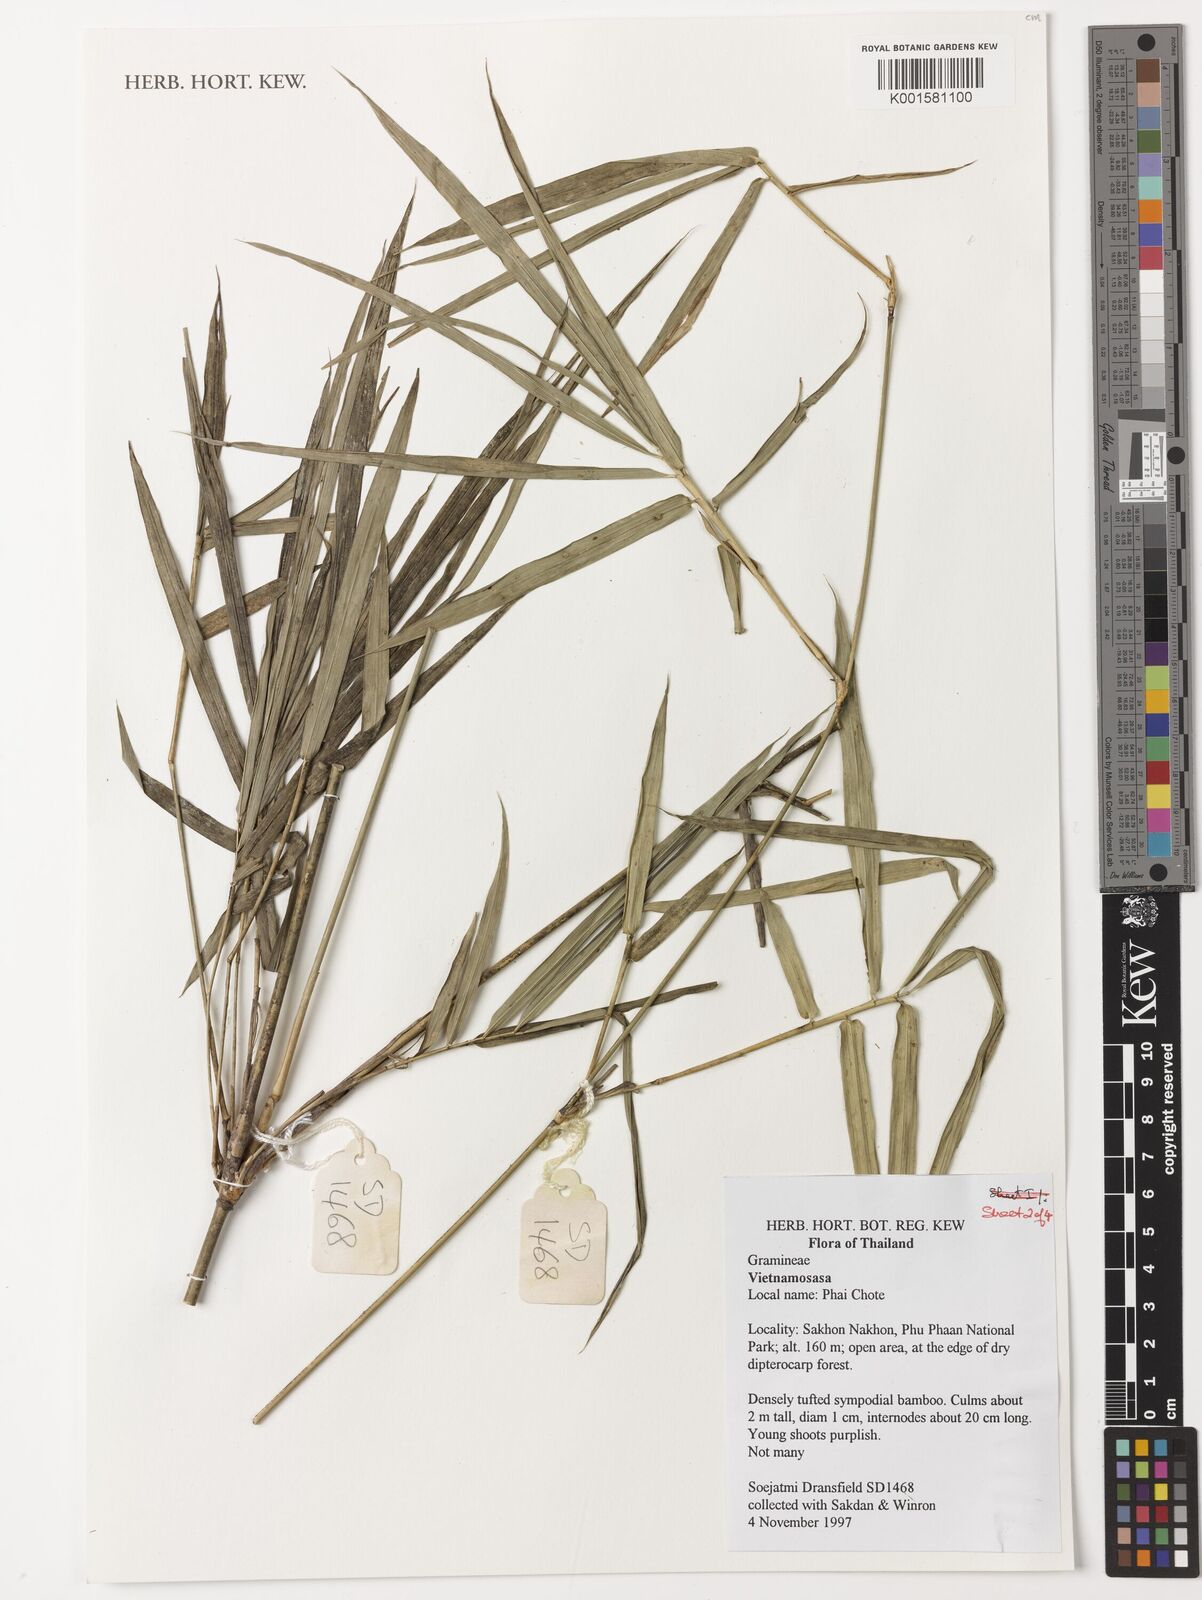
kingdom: Plantae
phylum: Tracheophyta
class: Liliopsida
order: Poales
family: Poaceae
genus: Vietnamosasa
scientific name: Vietnamosasa
